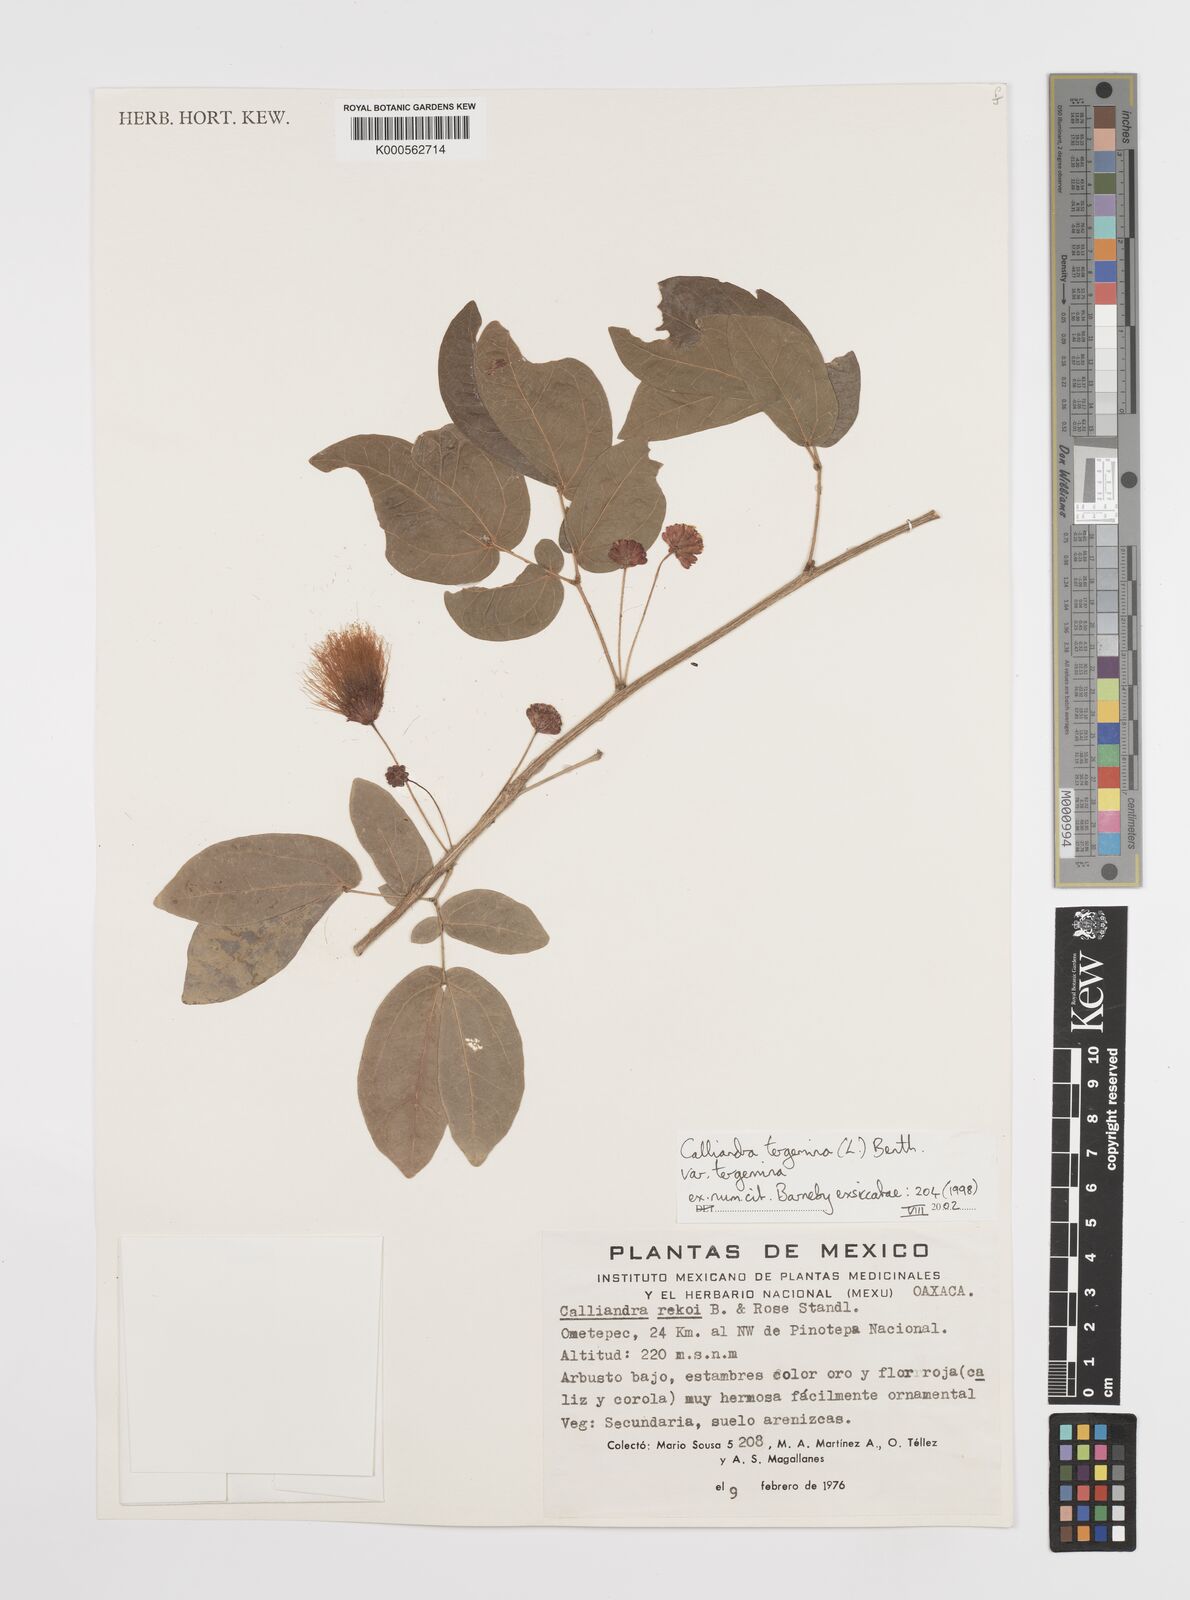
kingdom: Plantae
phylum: Tracheophyta
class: Magnoliopsida
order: Fabales
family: Fabaceae
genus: Calliandra
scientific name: Calliandra tergemina
